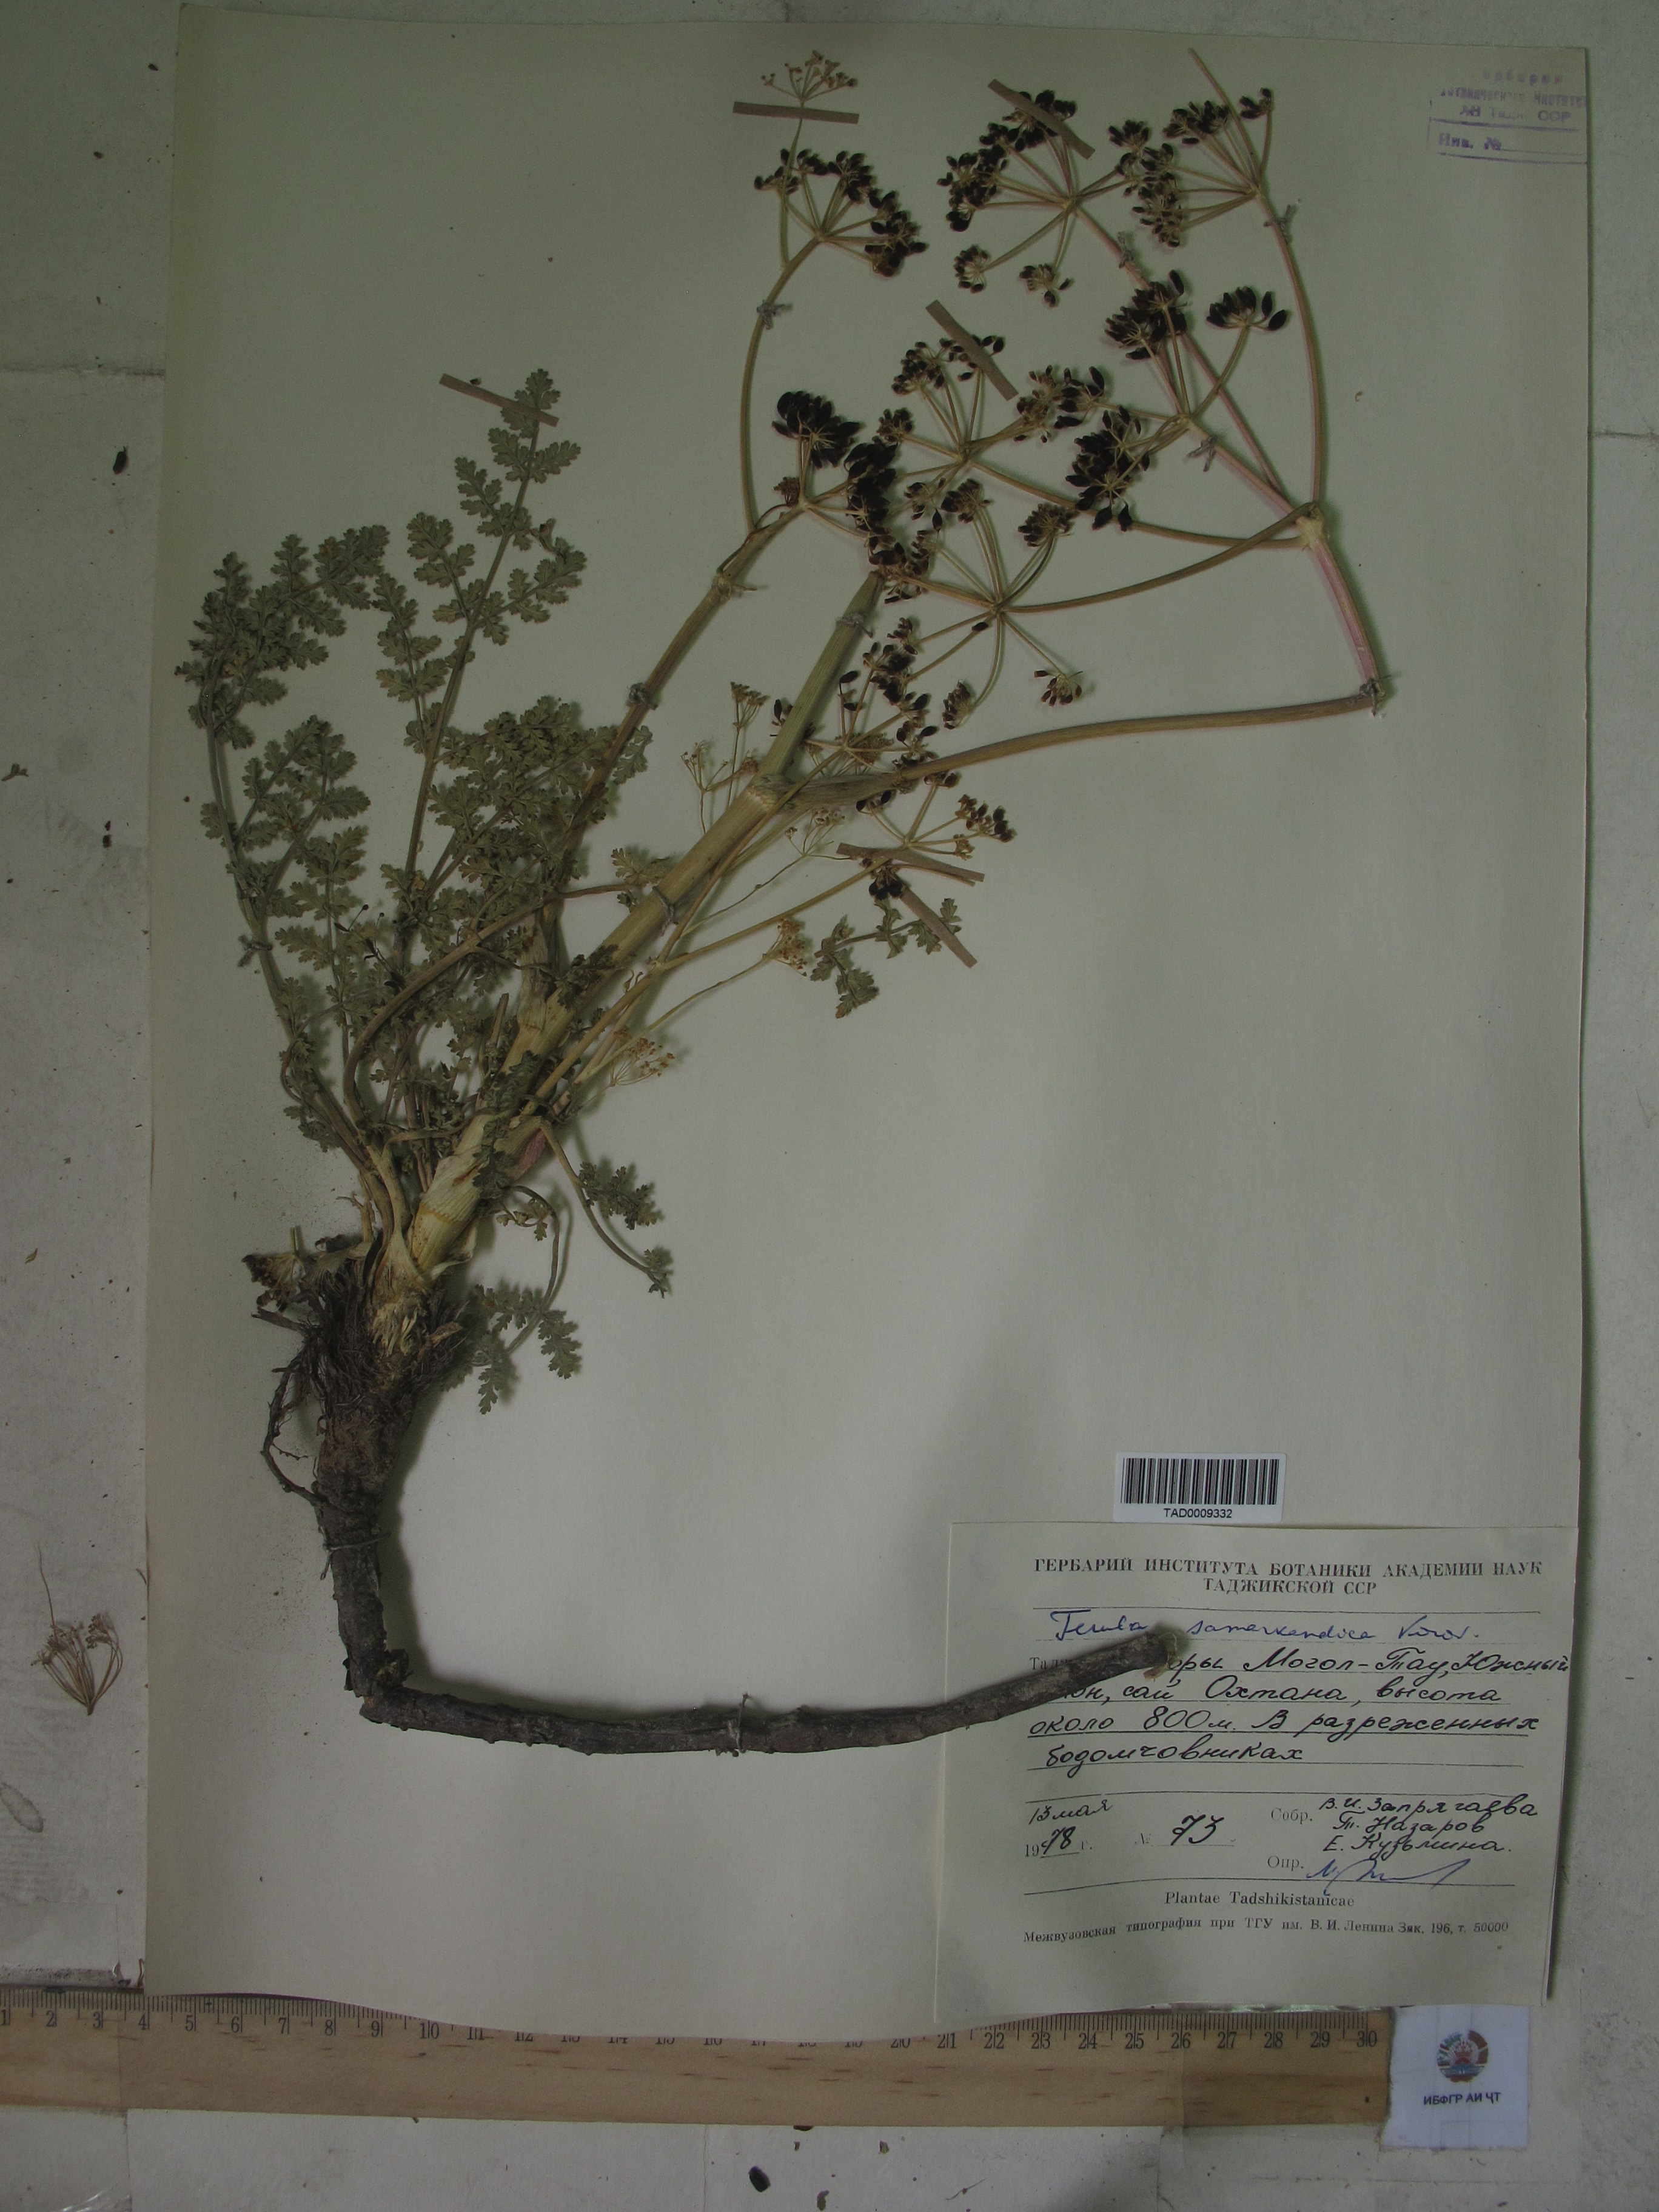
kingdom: Plantae
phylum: Tracheophyta
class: Magnoliopsida
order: Apiales
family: Apiaceae
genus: Ferula
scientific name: Ferula samarkandica
